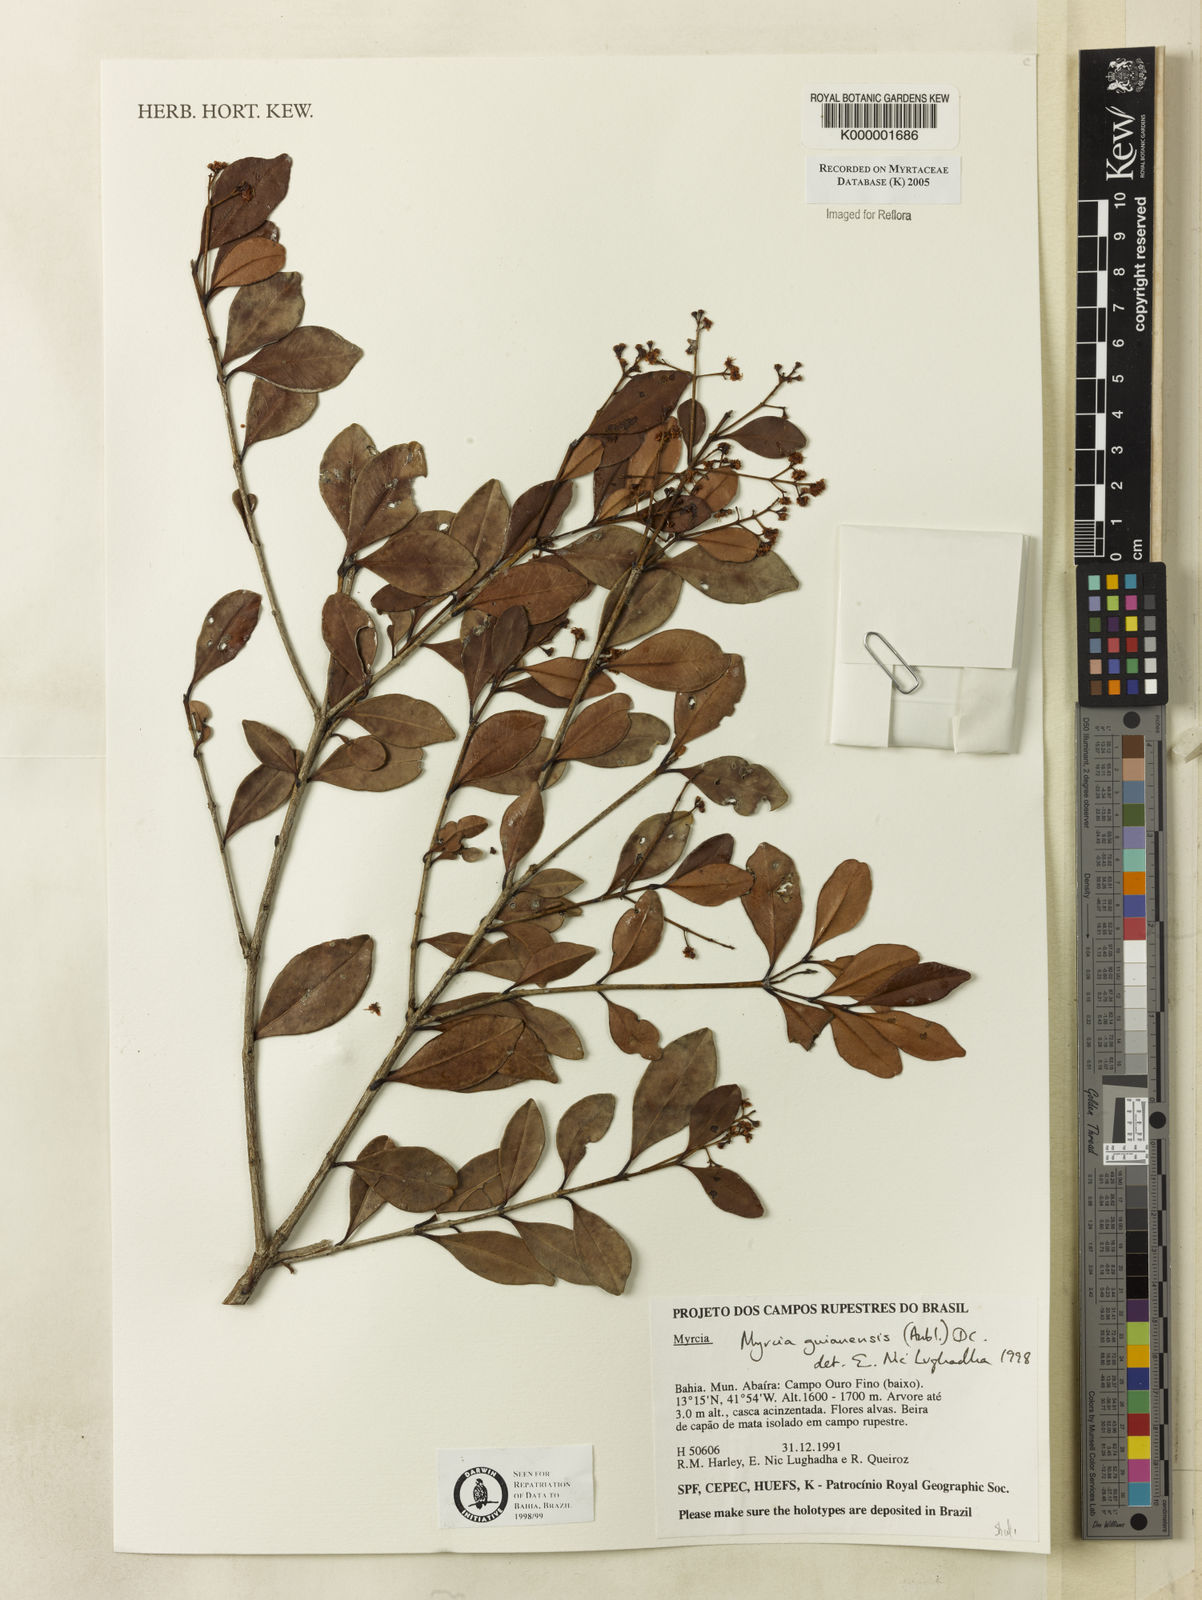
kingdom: Plantae
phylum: Tracheophyta
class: Magnoliopsida
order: Myrtales
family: Myrtaceae
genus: Myrcia
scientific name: Myrcia guianensis
